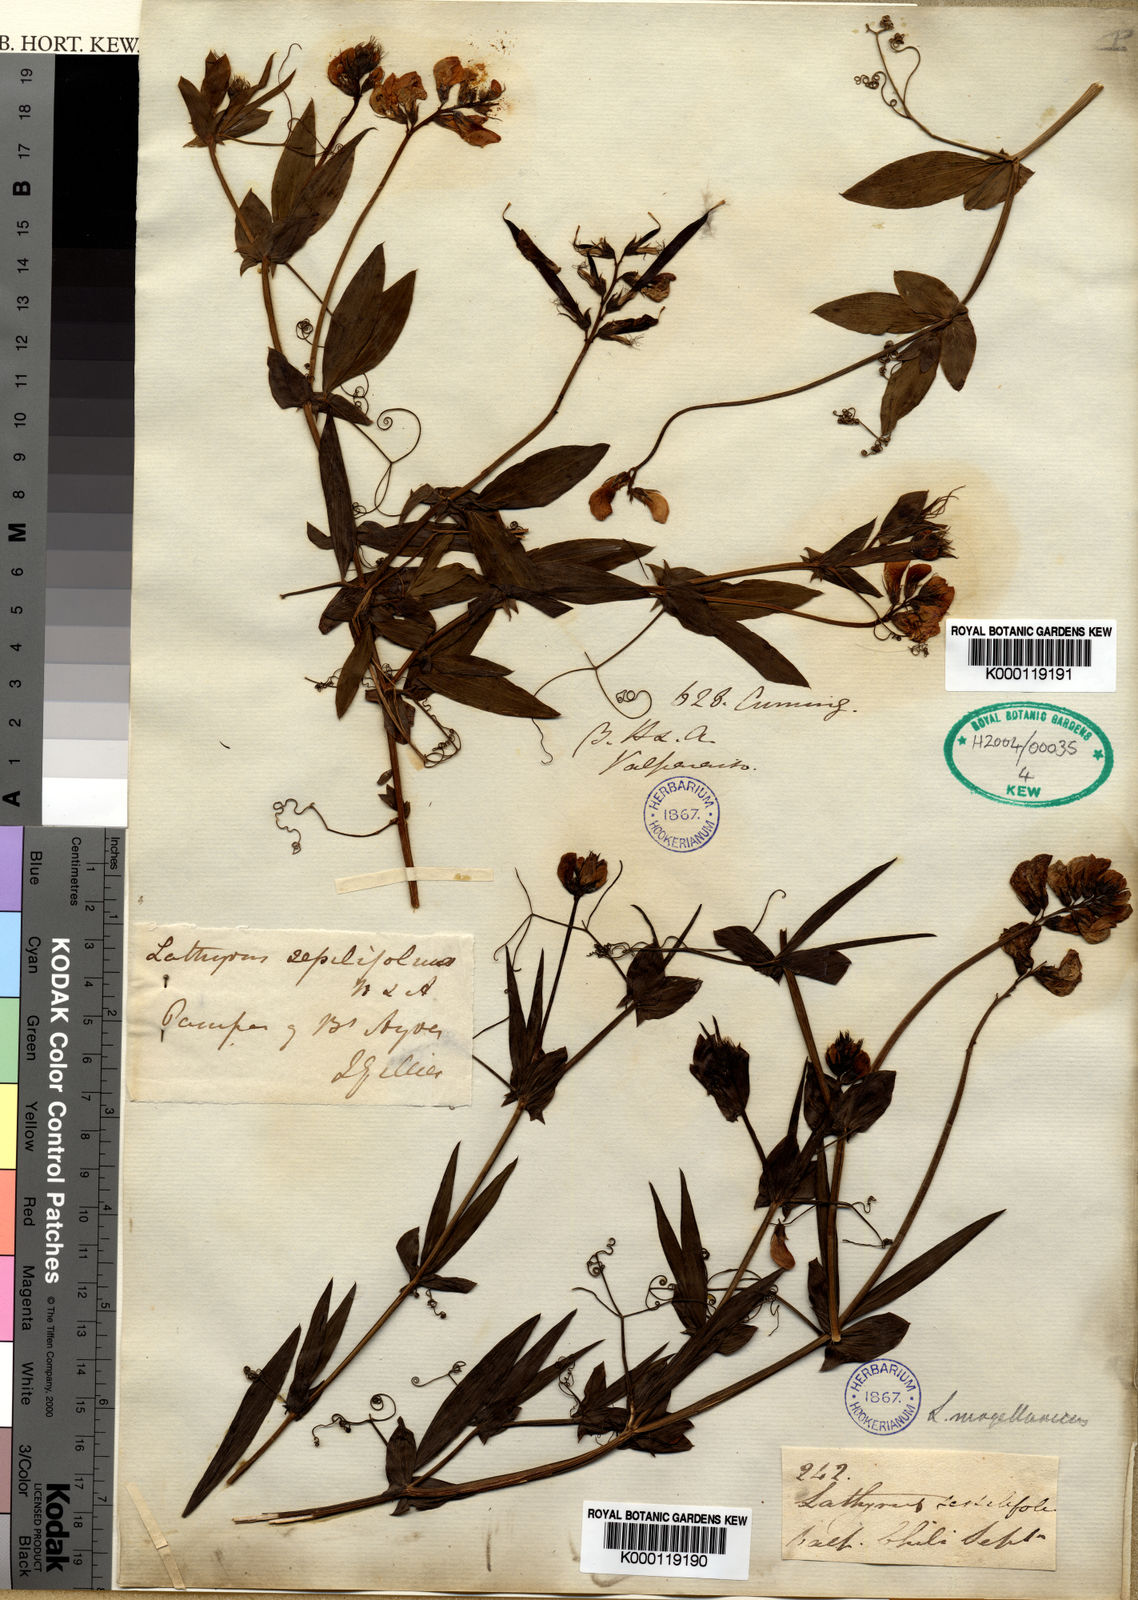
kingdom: Plantae
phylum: Tracheophyta
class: Magnoliopsida
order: Fabales
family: Fabaceae
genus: Lathyrus
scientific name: Lathyrus
